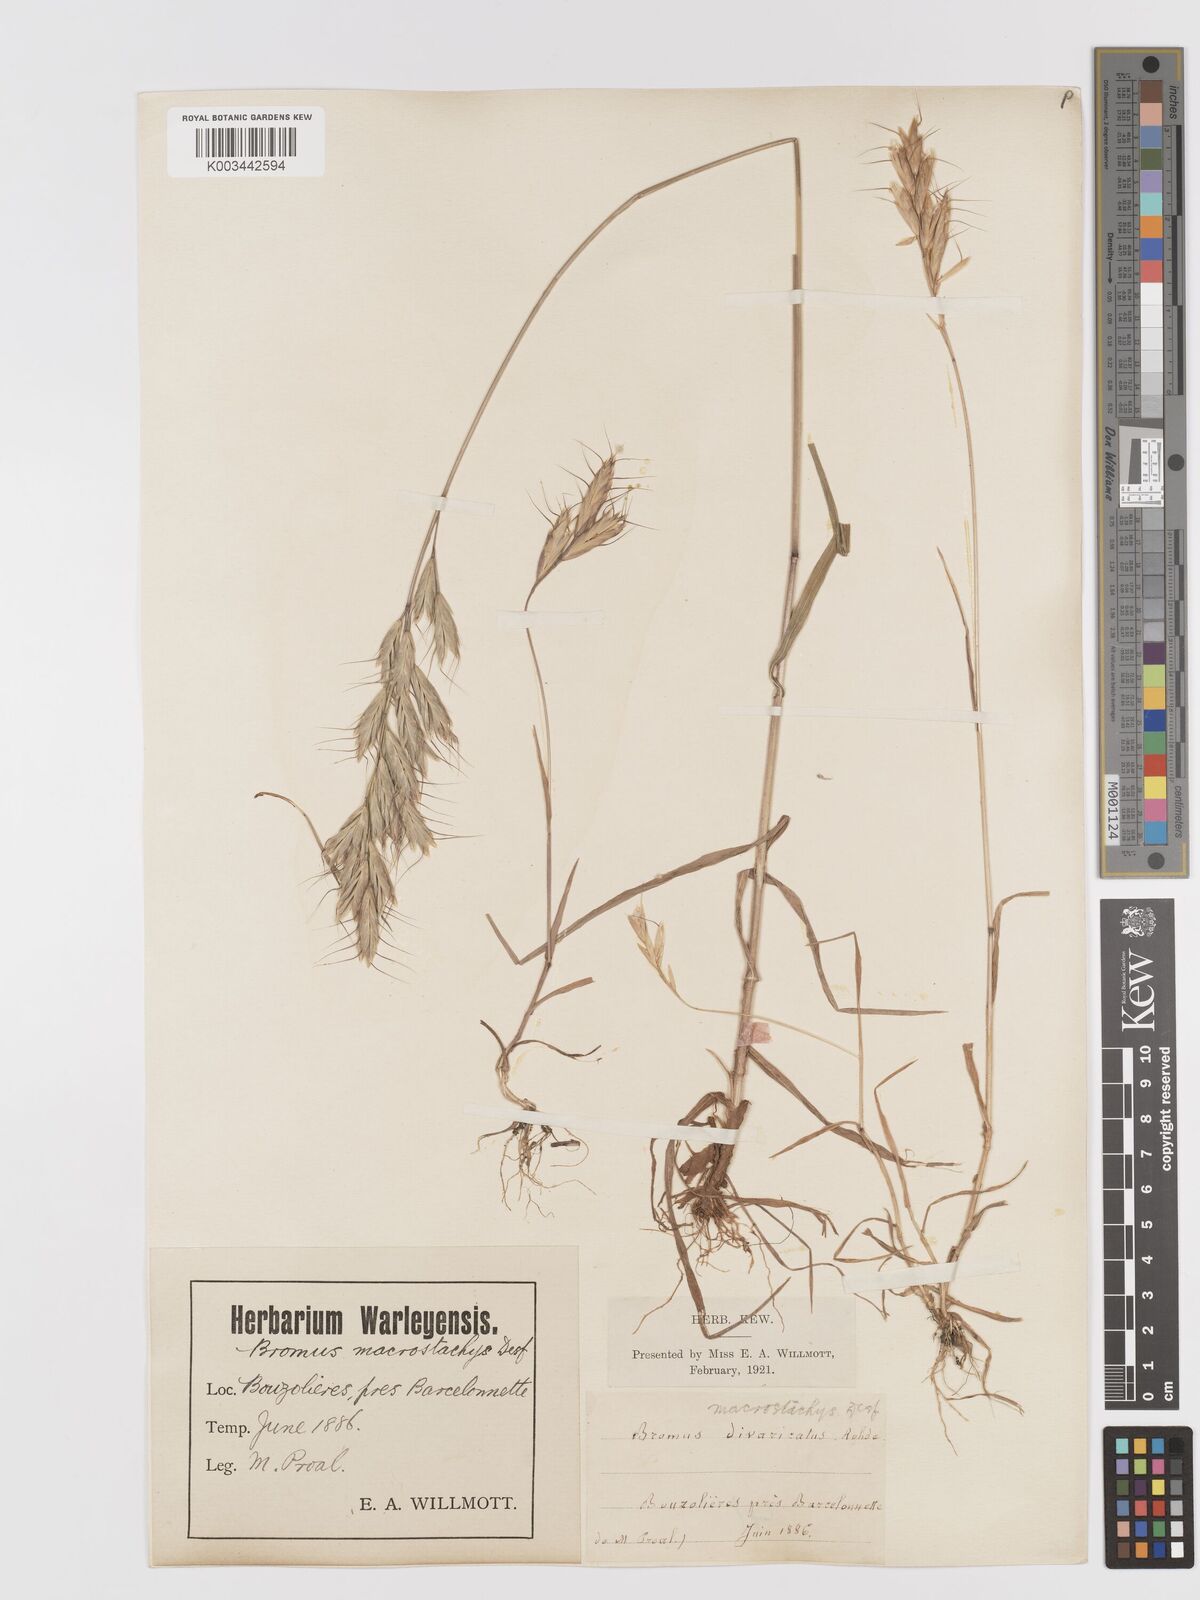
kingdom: Plantae
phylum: Tracheophyta
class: Liliopsida
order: Poales
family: Poaceae
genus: Bromus
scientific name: Bromus lanceolatus
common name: Mediterranean brome
